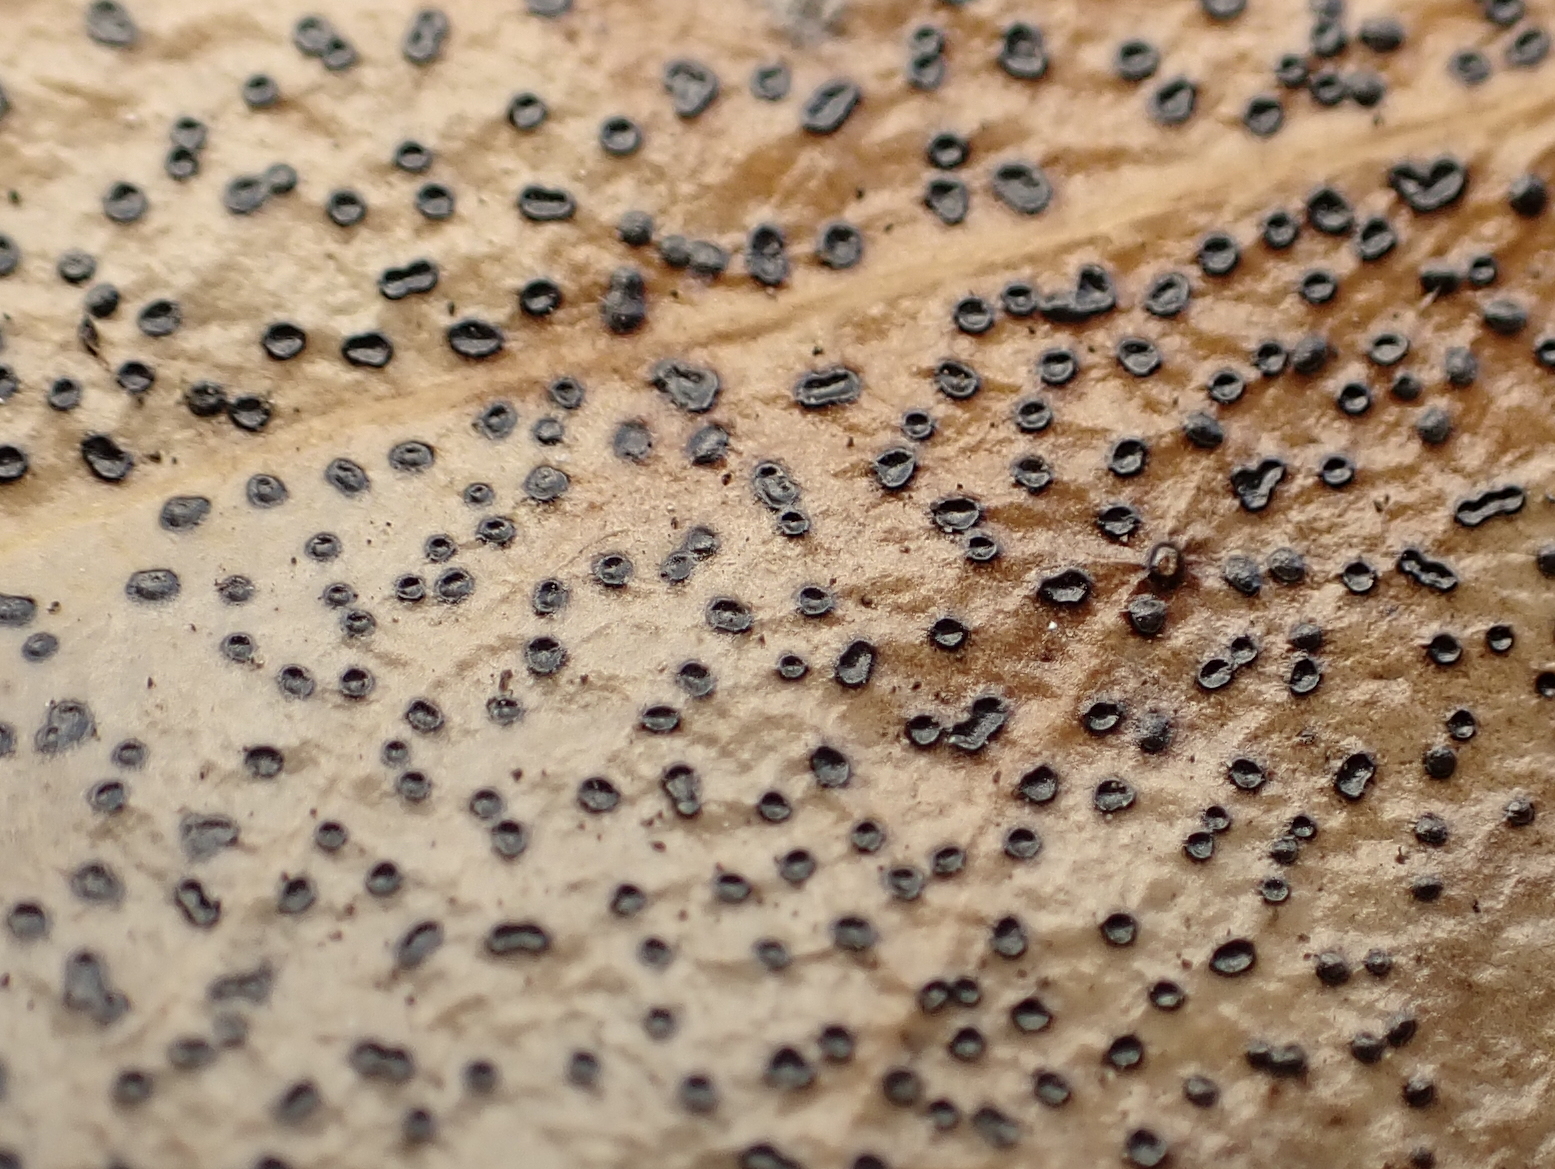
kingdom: Fungi
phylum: Ascomycota
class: Leotiomycetes
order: Helotiales
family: Cenangiaceae
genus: Trochila
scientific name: Trochila ilicina
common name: kristtorn-lågskive
